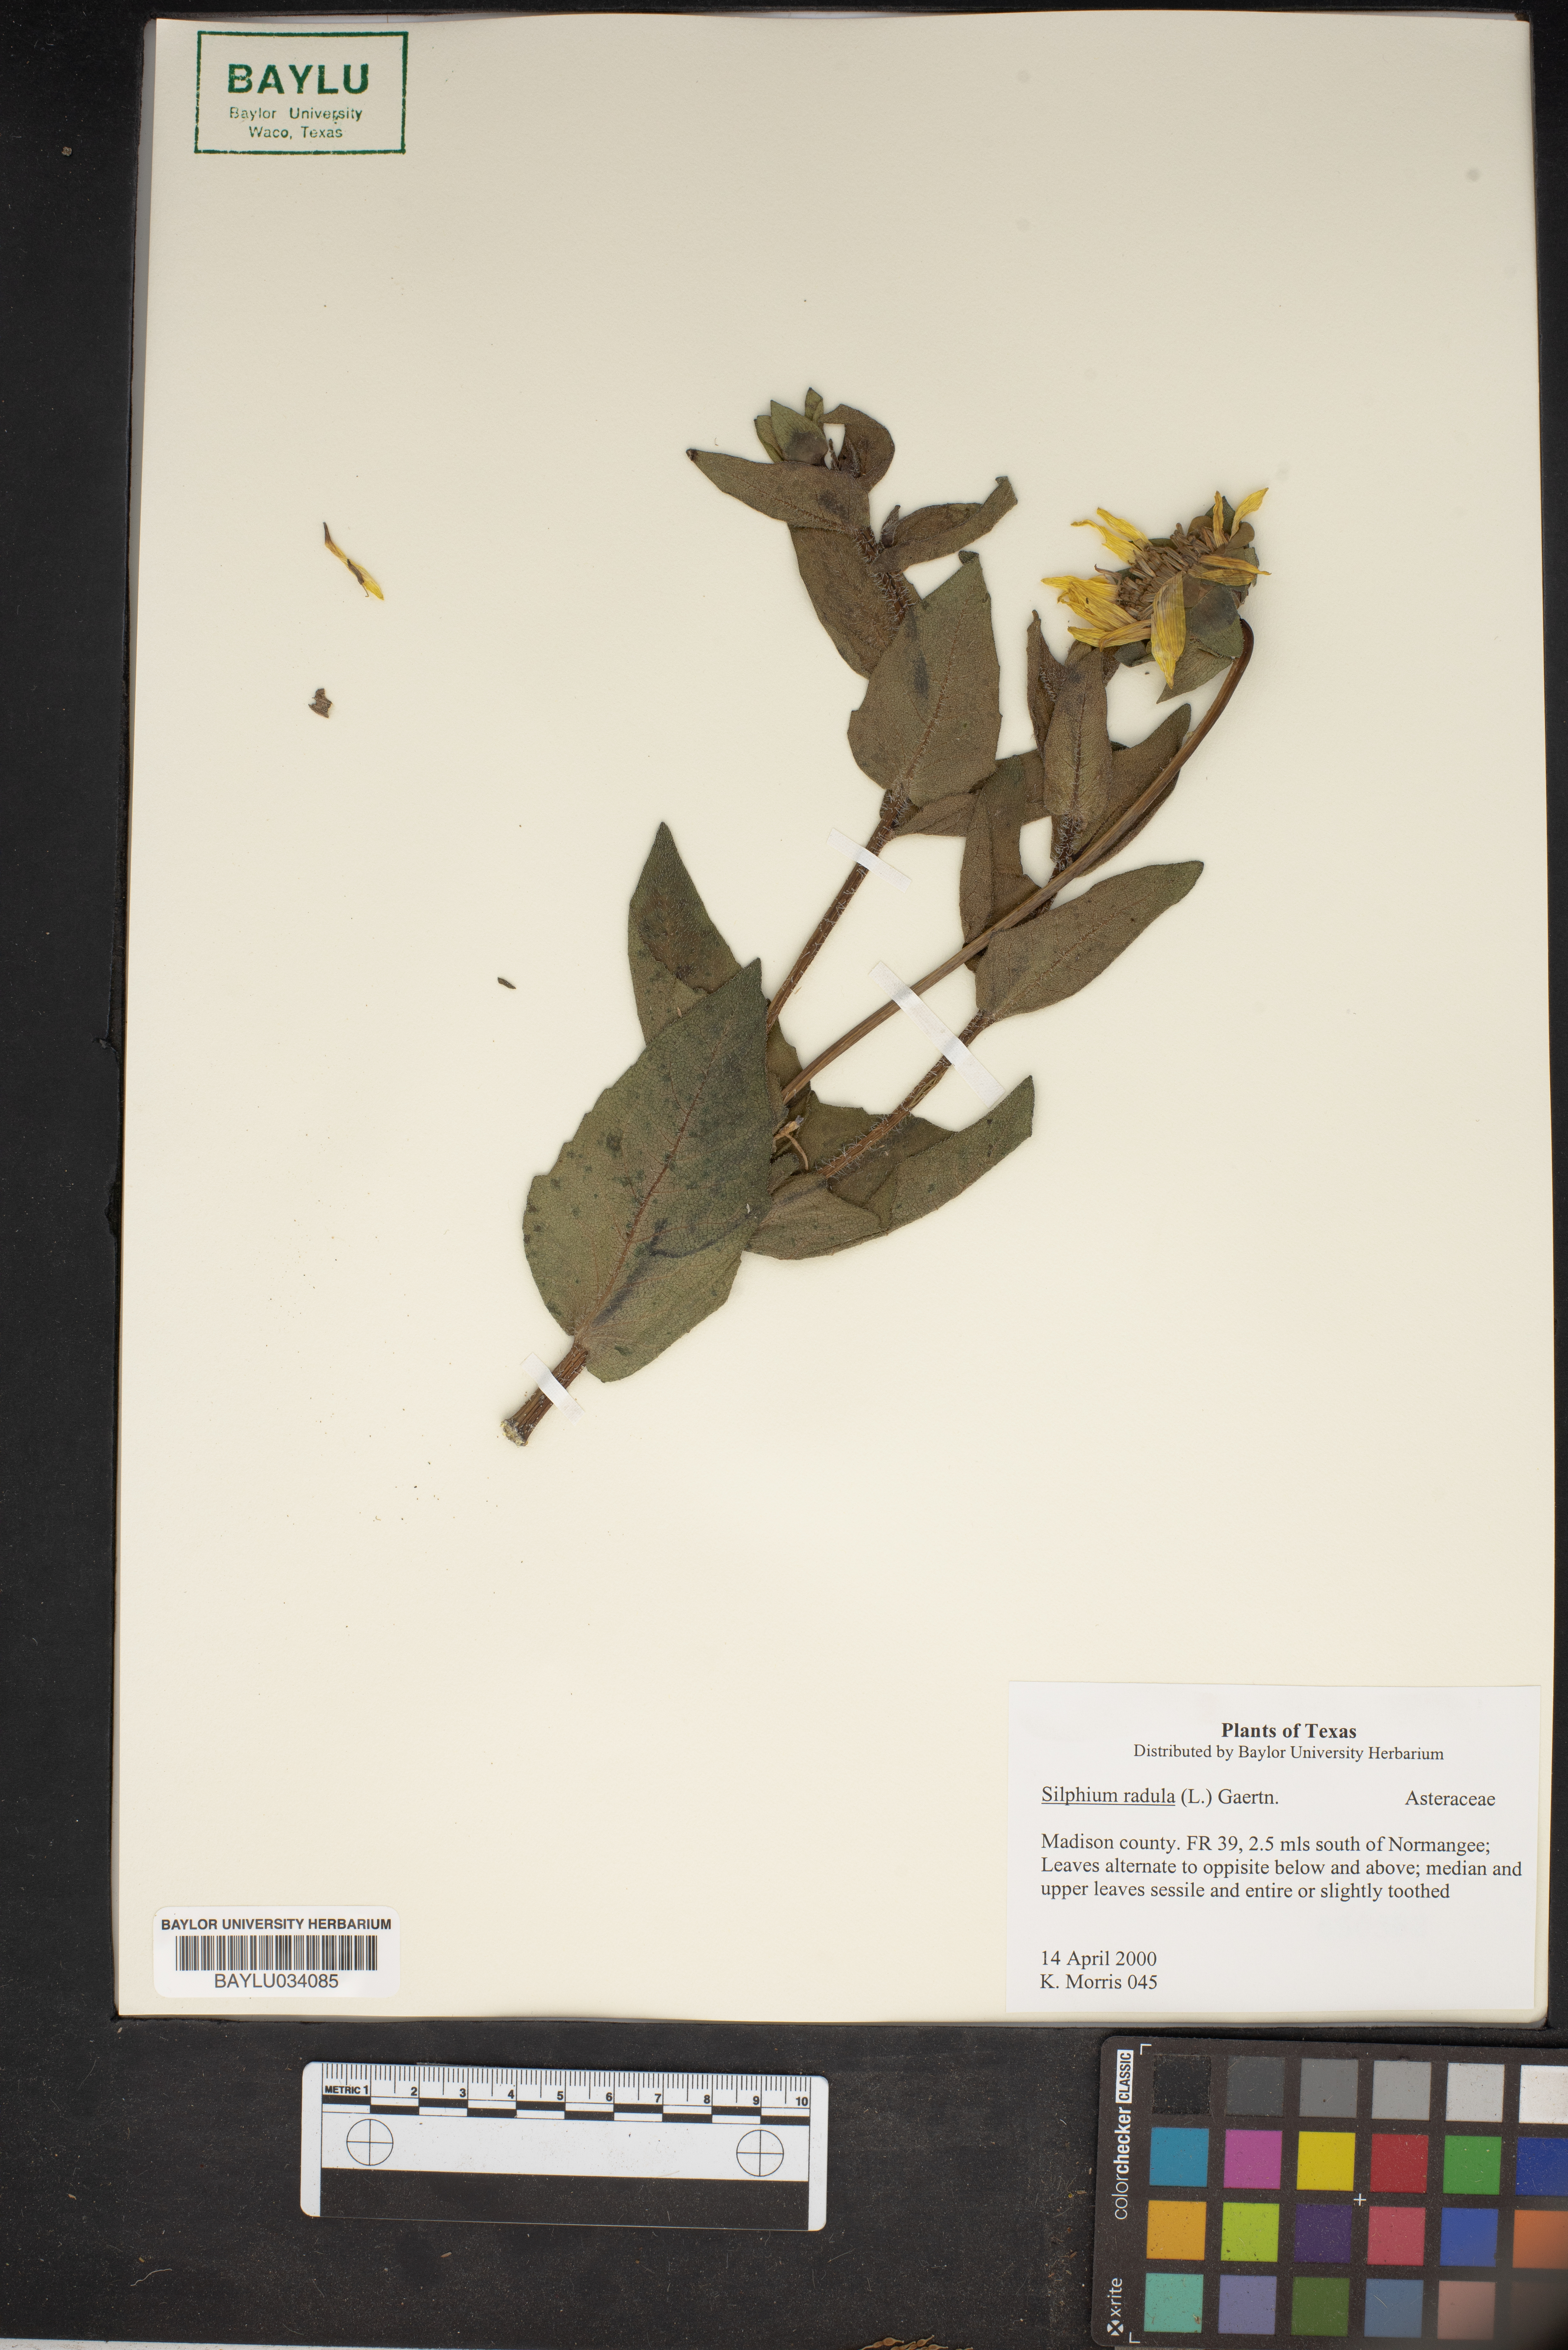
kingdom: Plantae
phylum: Tracheophyta
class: Magnoliopsida
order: Asterales
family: Asteraceae
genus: Silphium
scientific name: Silphium radula
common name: Roughleaf rosinweed
